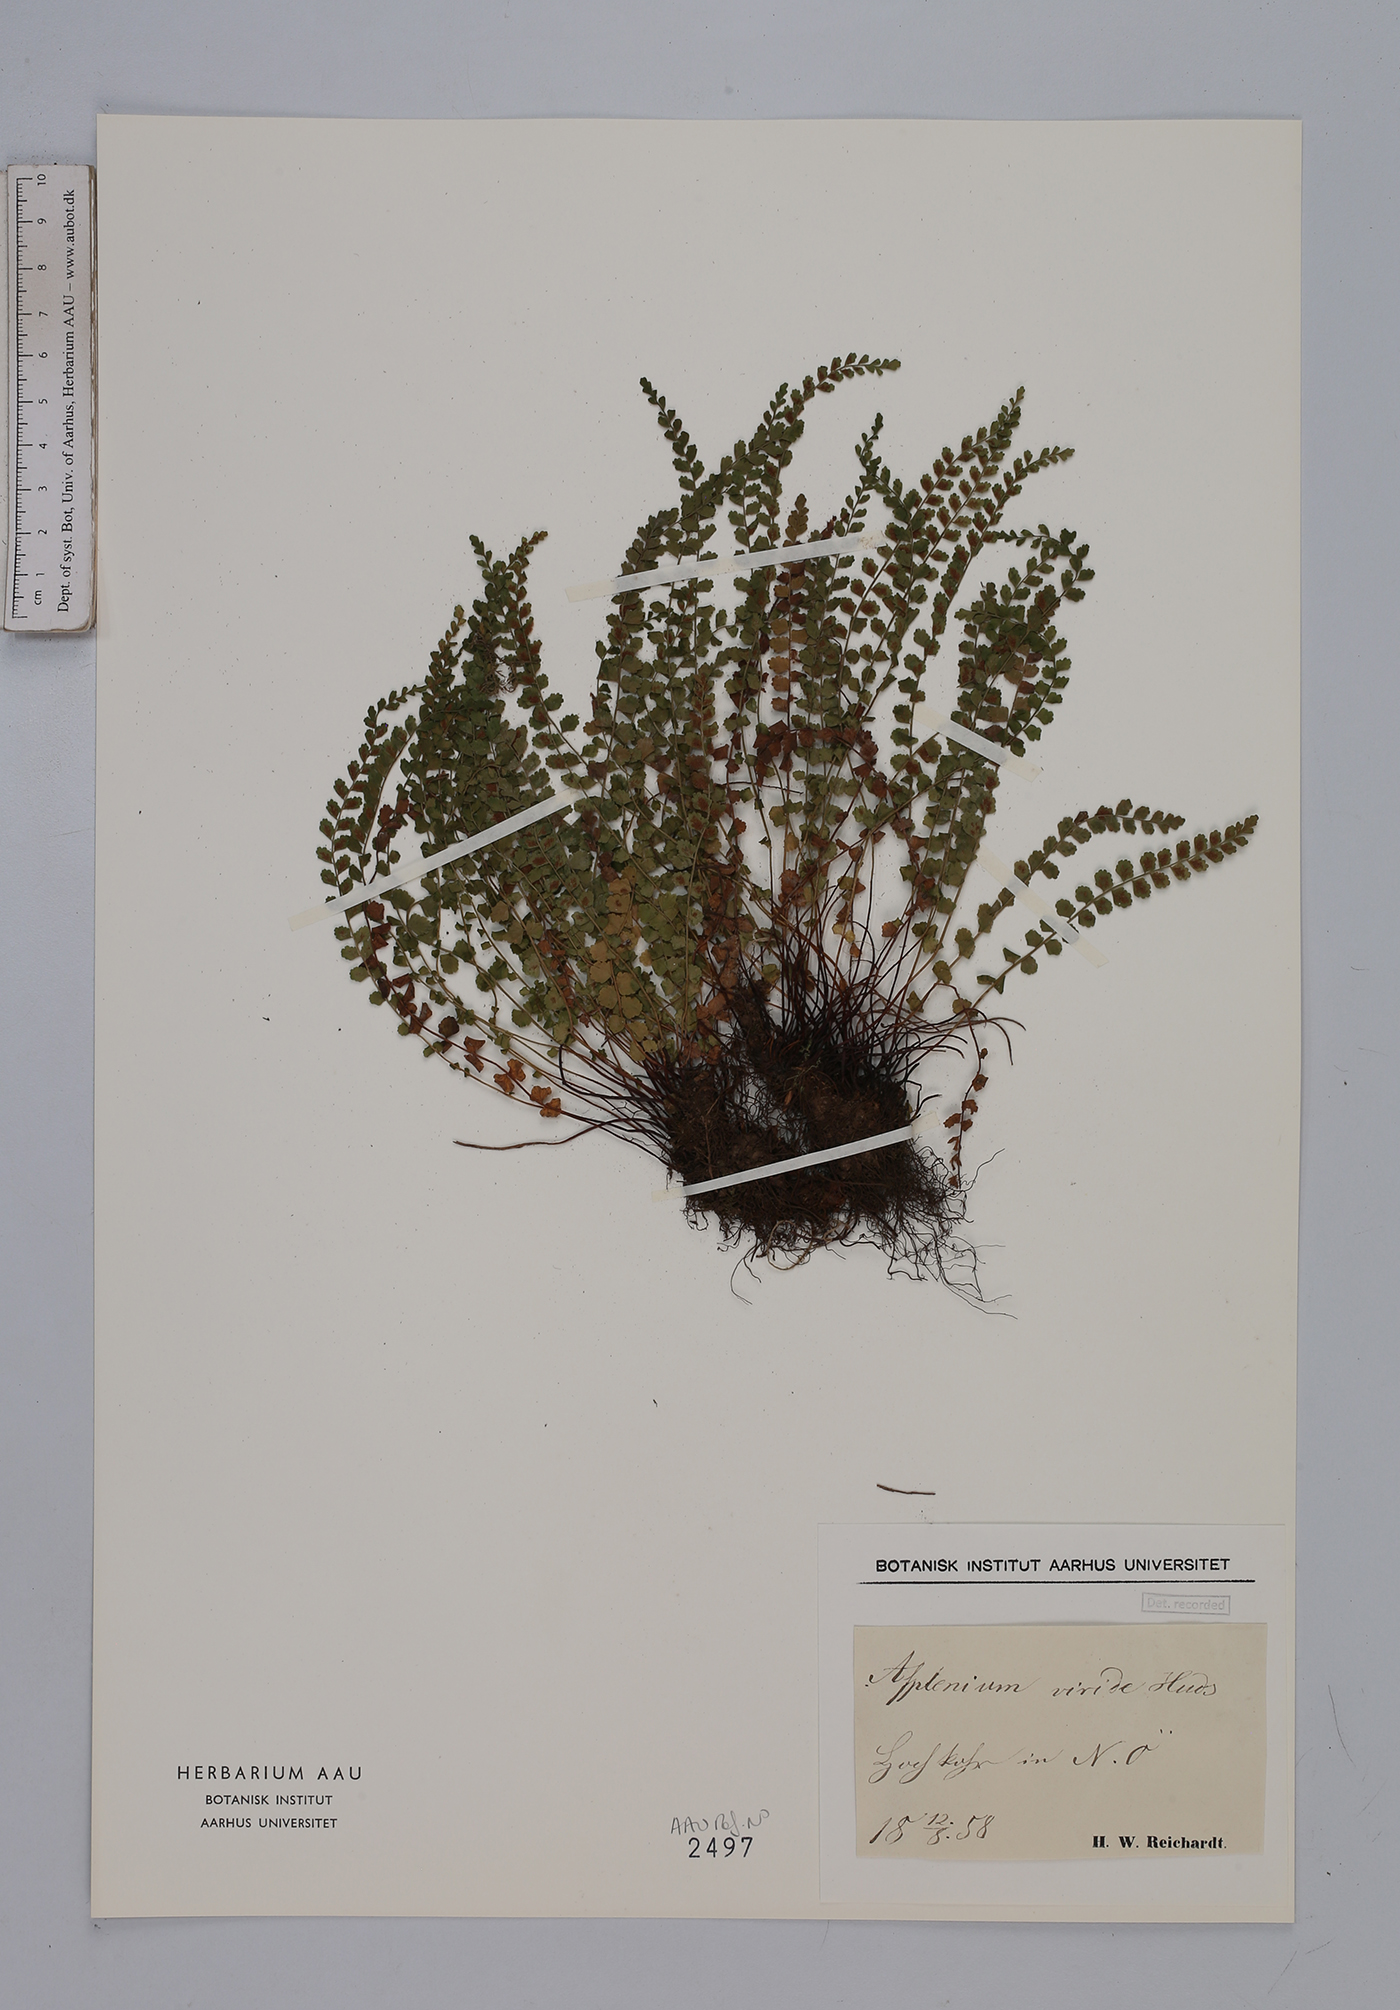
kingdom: Plantae
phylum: Tracheophyta
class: Polypodiopsida
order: Polypodiales
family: Aspleniaceae
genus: Asplenium
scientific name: Asplenium viride
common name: Green spleenwort
